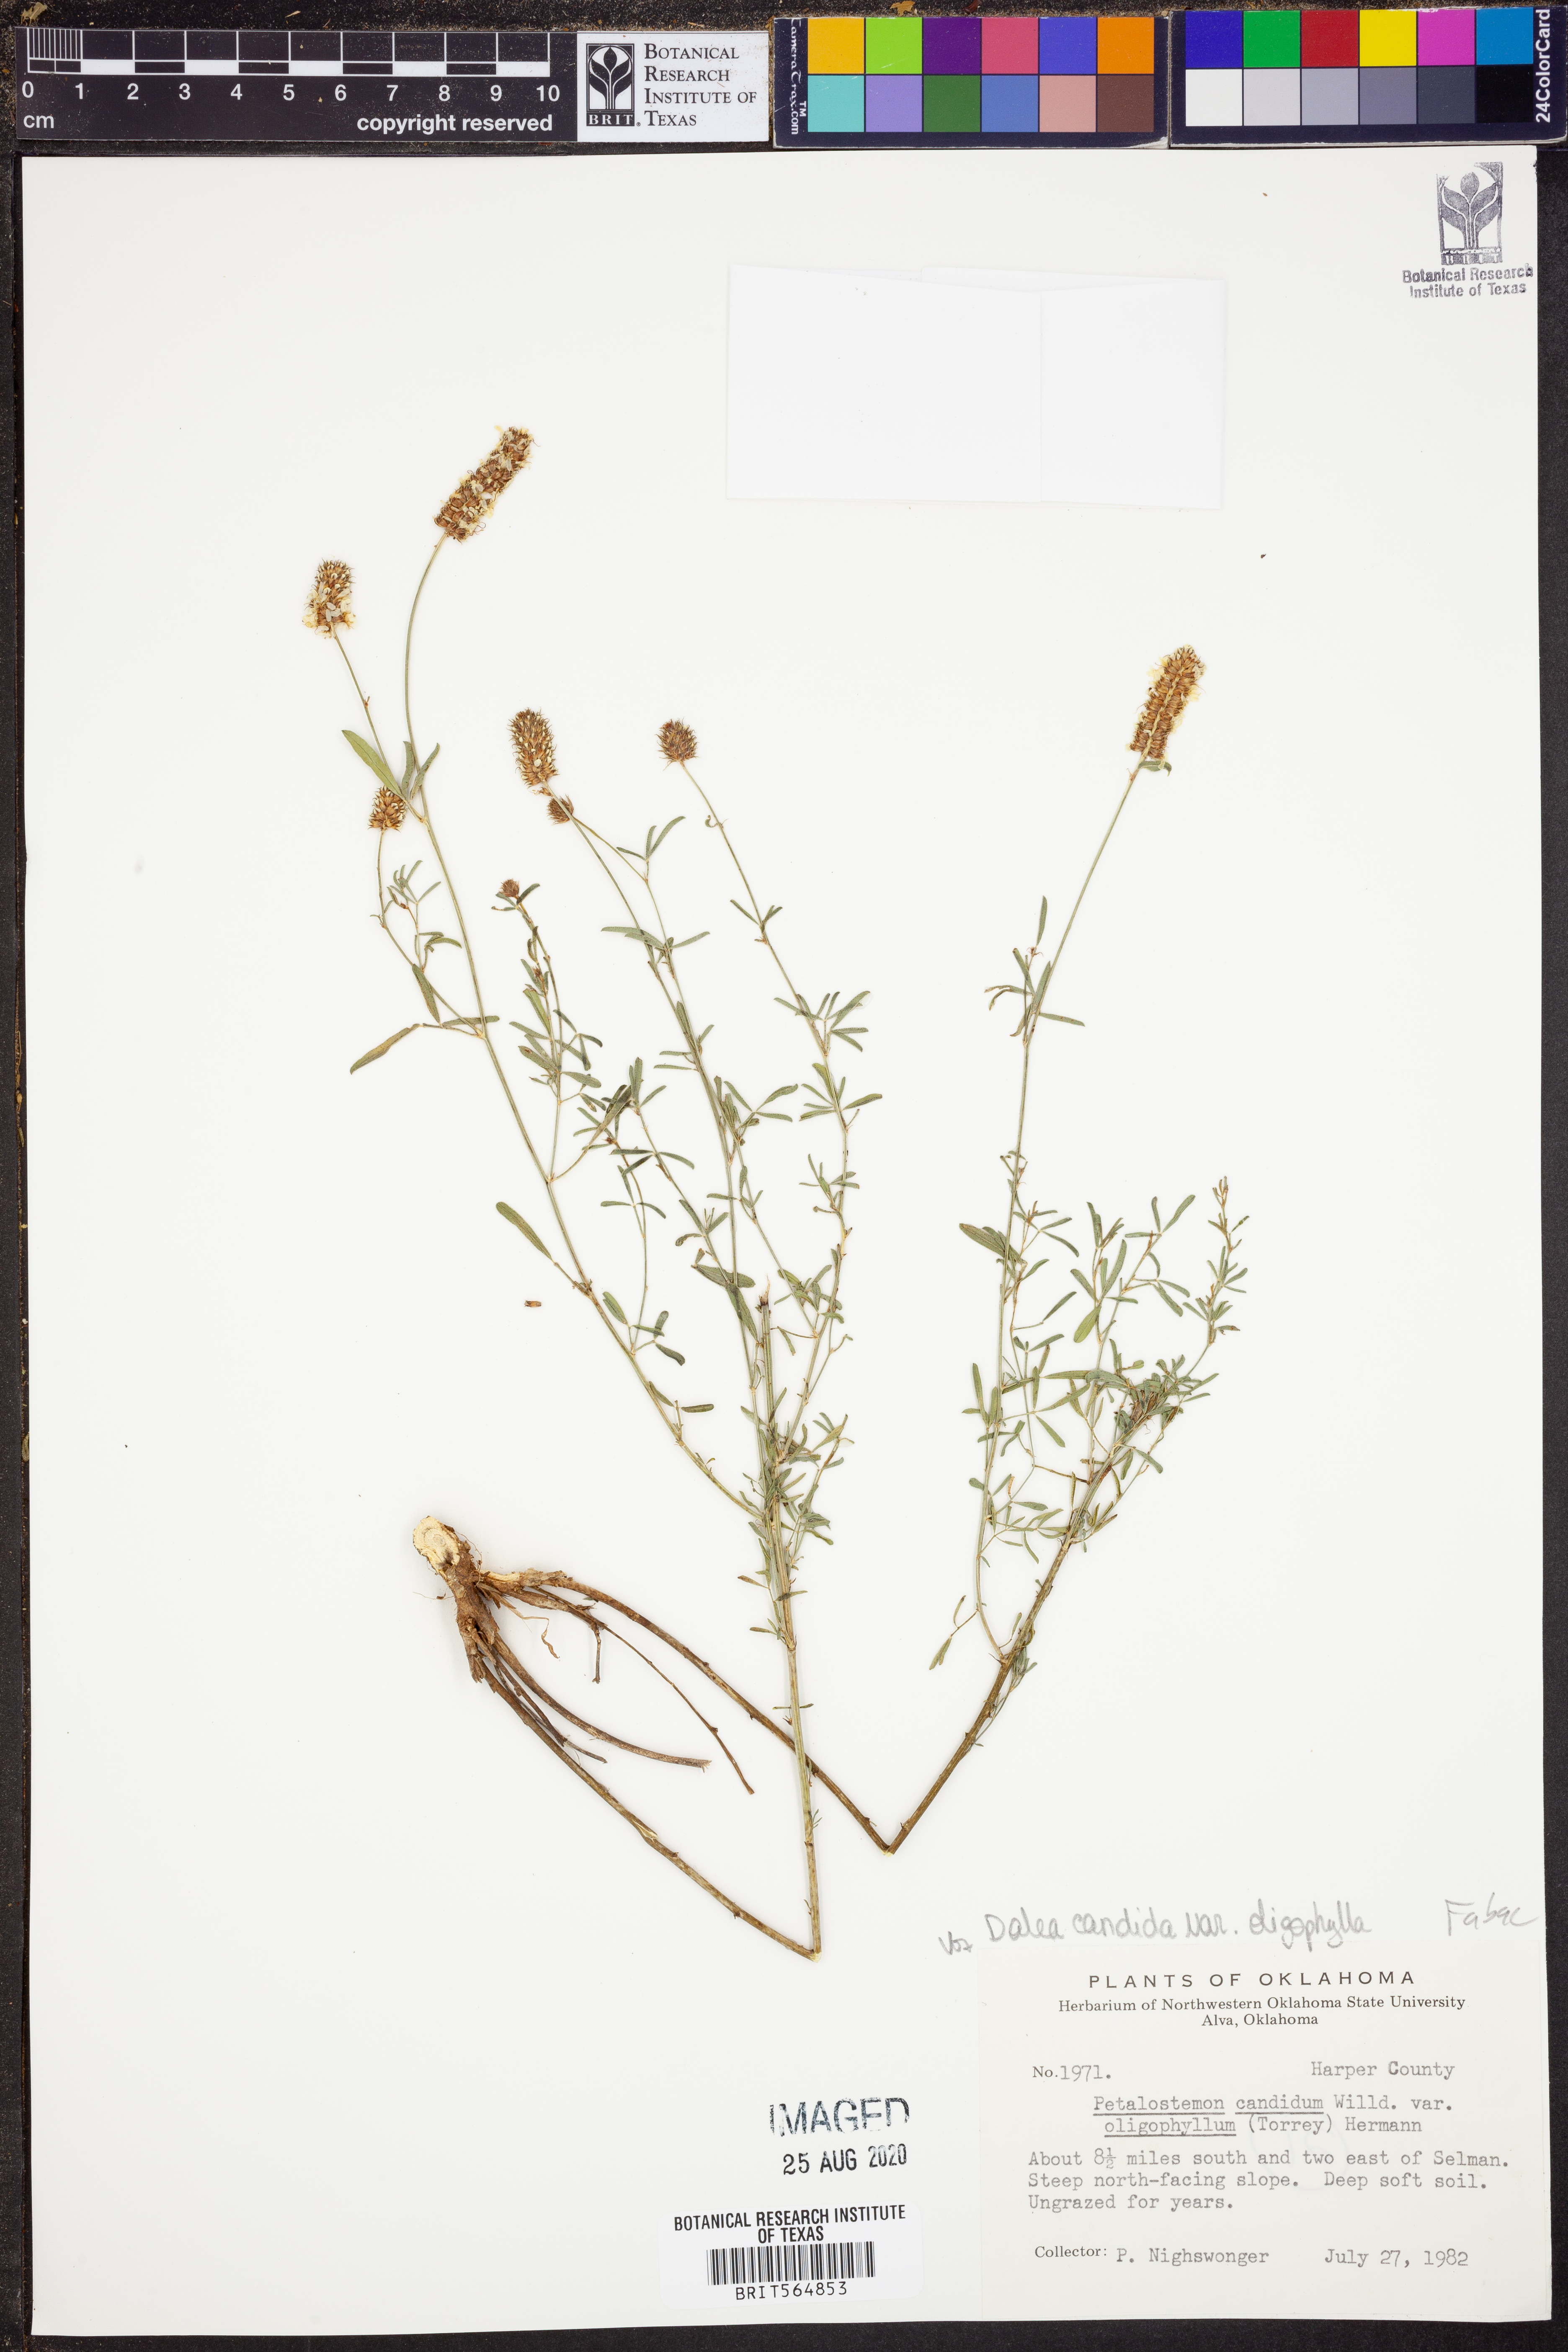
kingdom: Plantae
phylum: Tracheophyta
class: Magnoliopsida
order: Fabales
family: Fabaceae
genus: Dalea
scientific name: Dalea candida
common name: White prairie-clover
